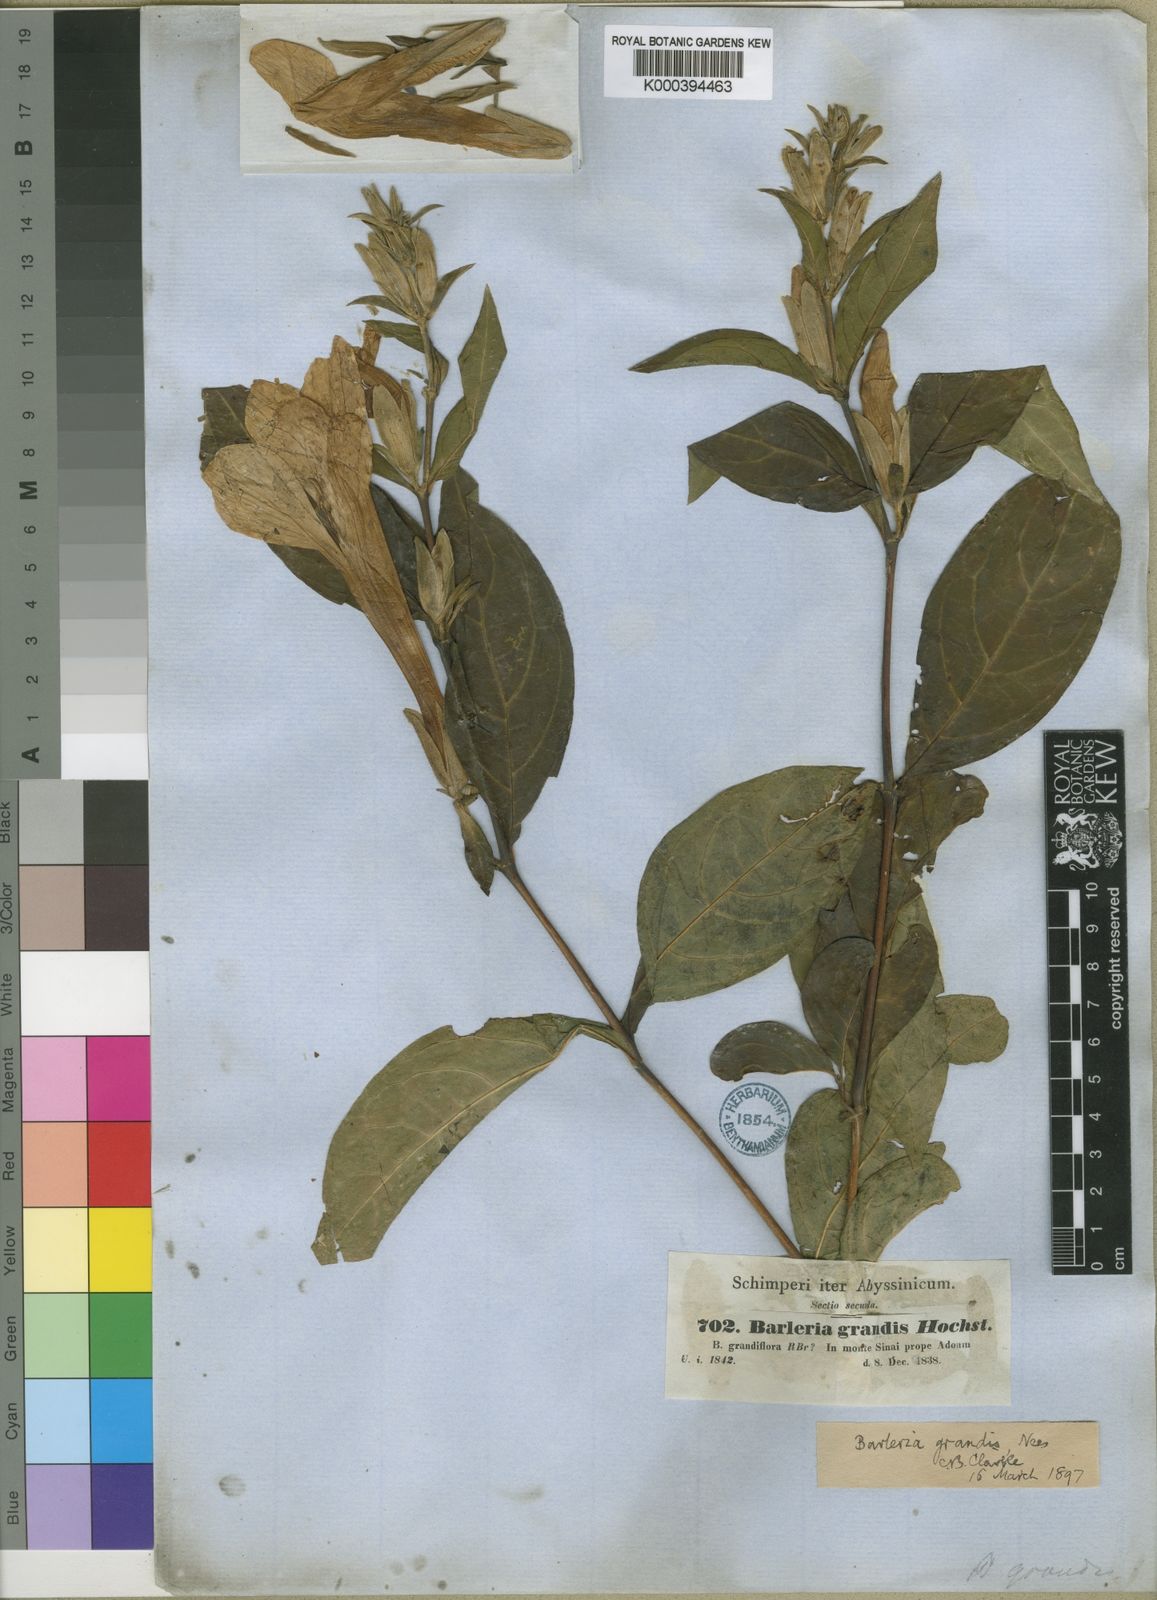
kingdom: Plantae
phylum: Tracheophyta
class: Magnoliopsida
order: Lamiales
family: Acanthaceae
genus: Barleria
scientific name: Barleria grandis
